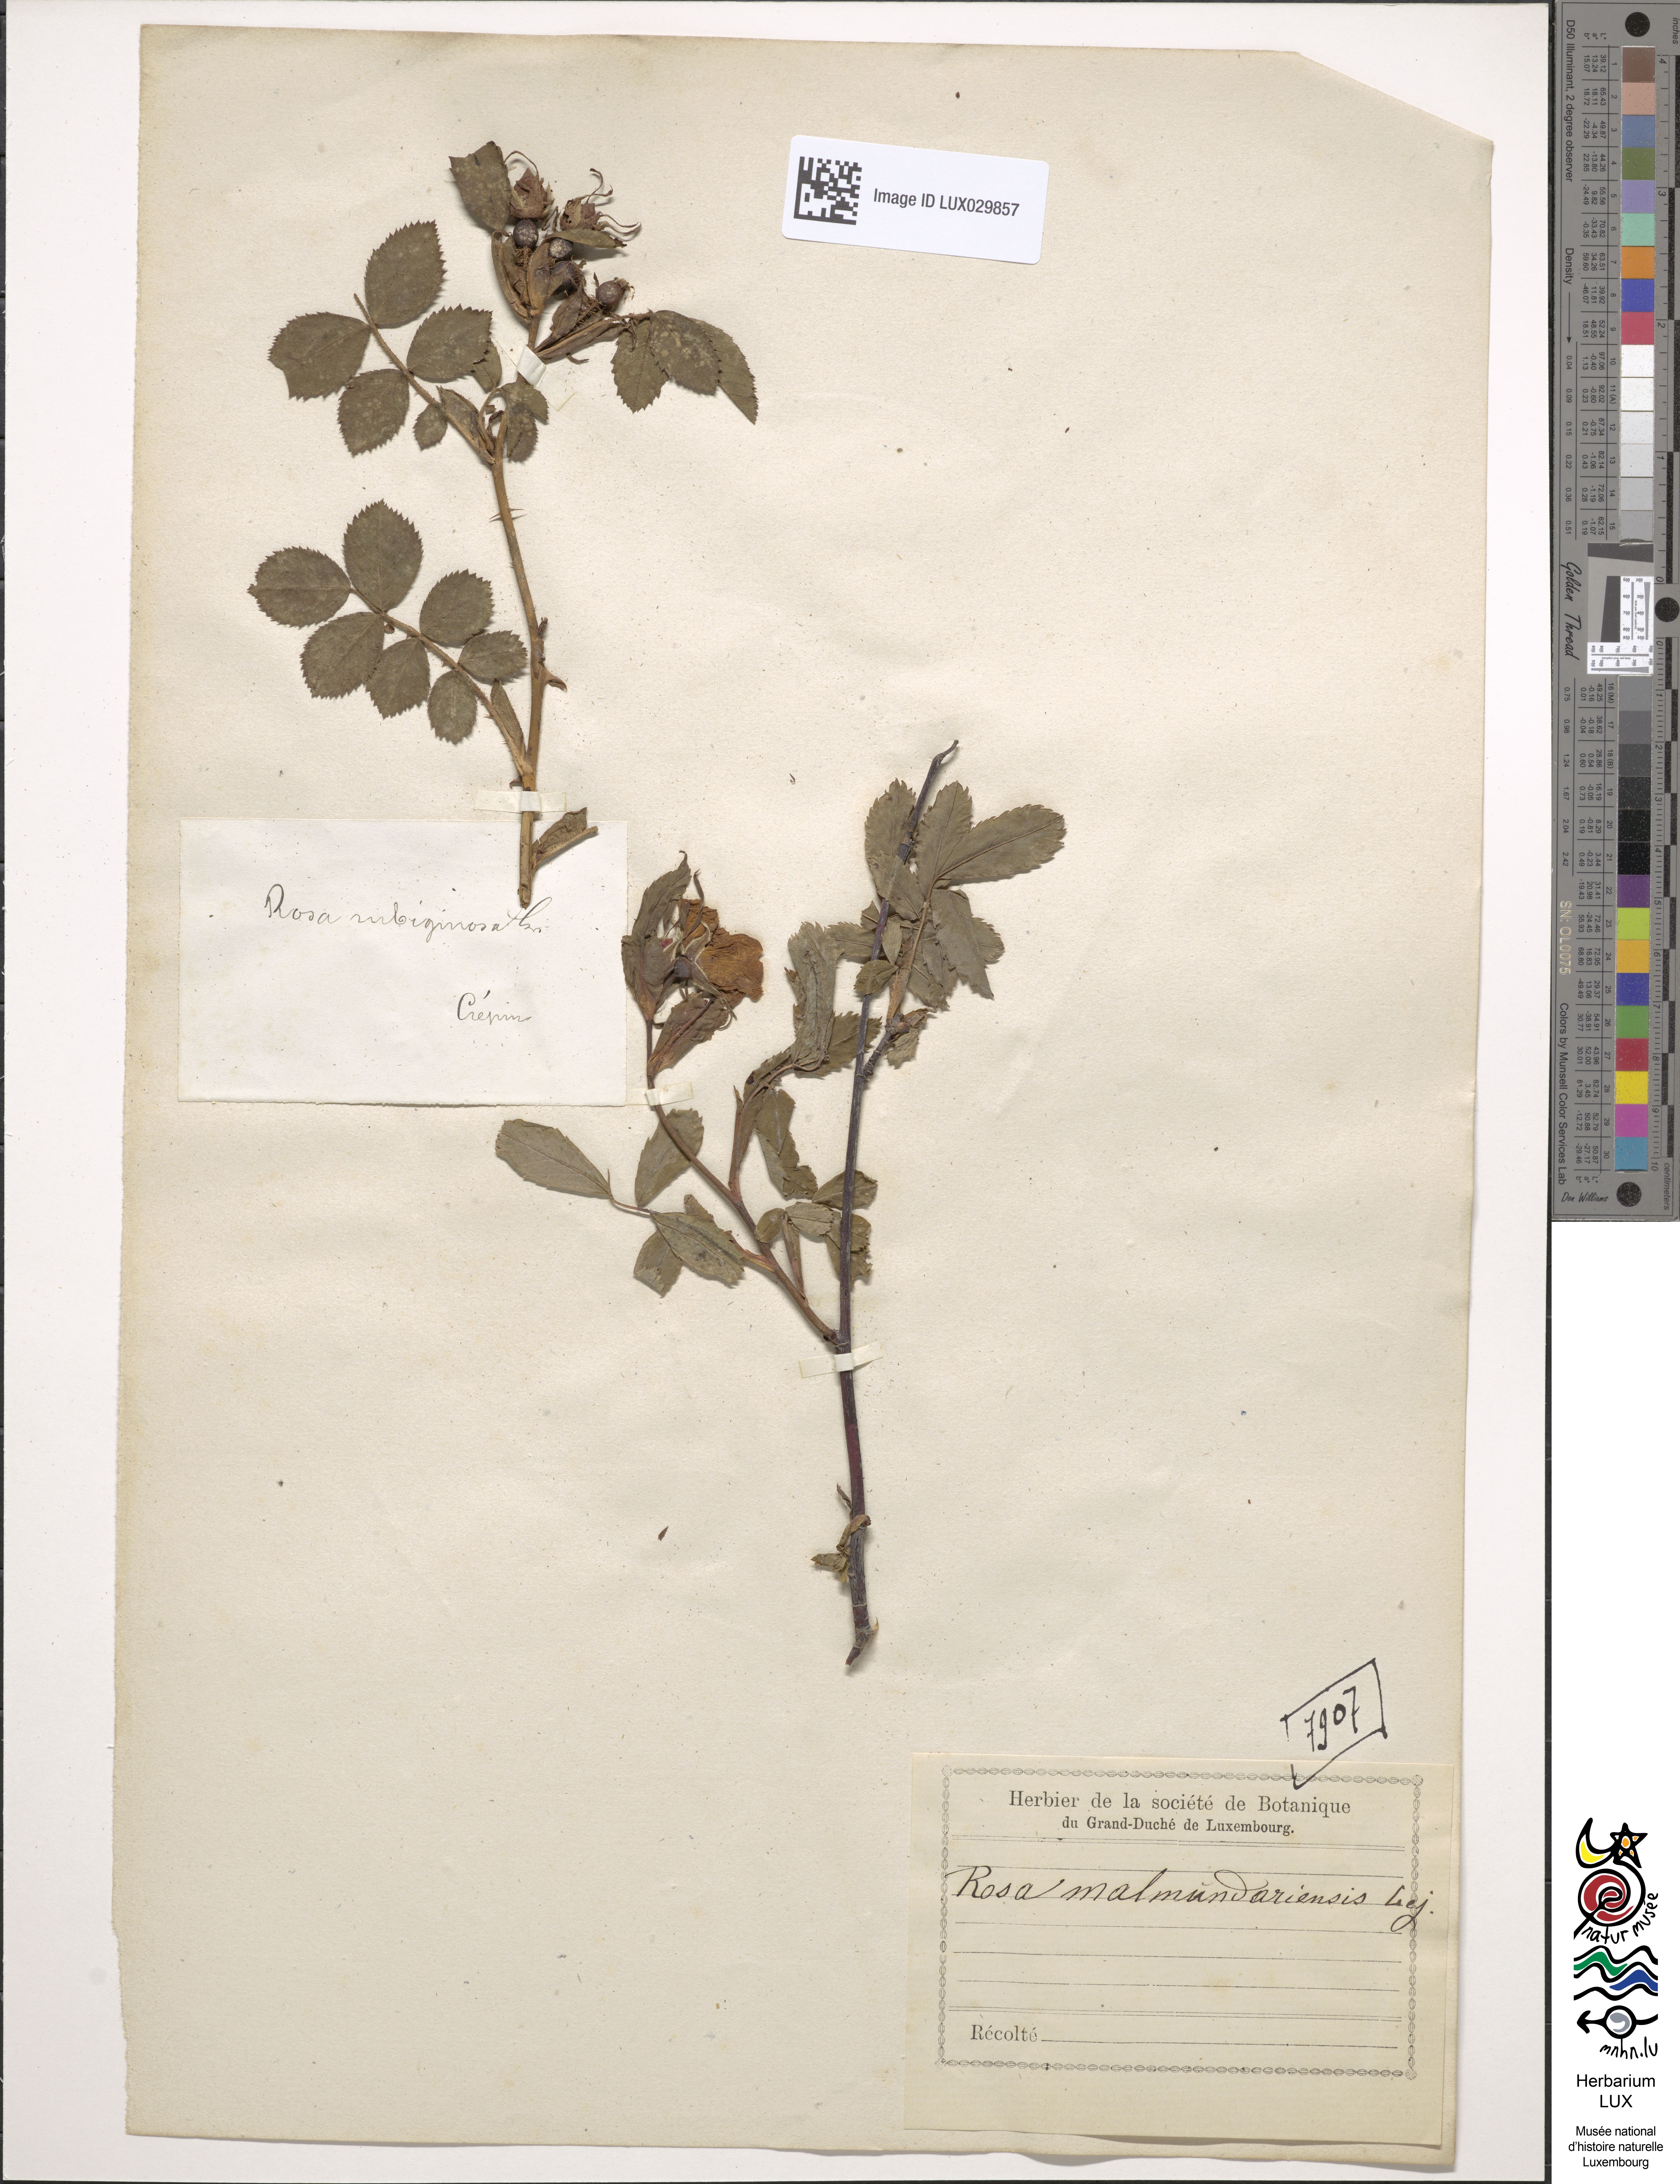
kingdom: Plantae
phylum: Tracheophyta
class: Magnoliopsida
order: Rosales
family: Rosaceae
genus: Rosa
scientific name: Rosa subcanina
